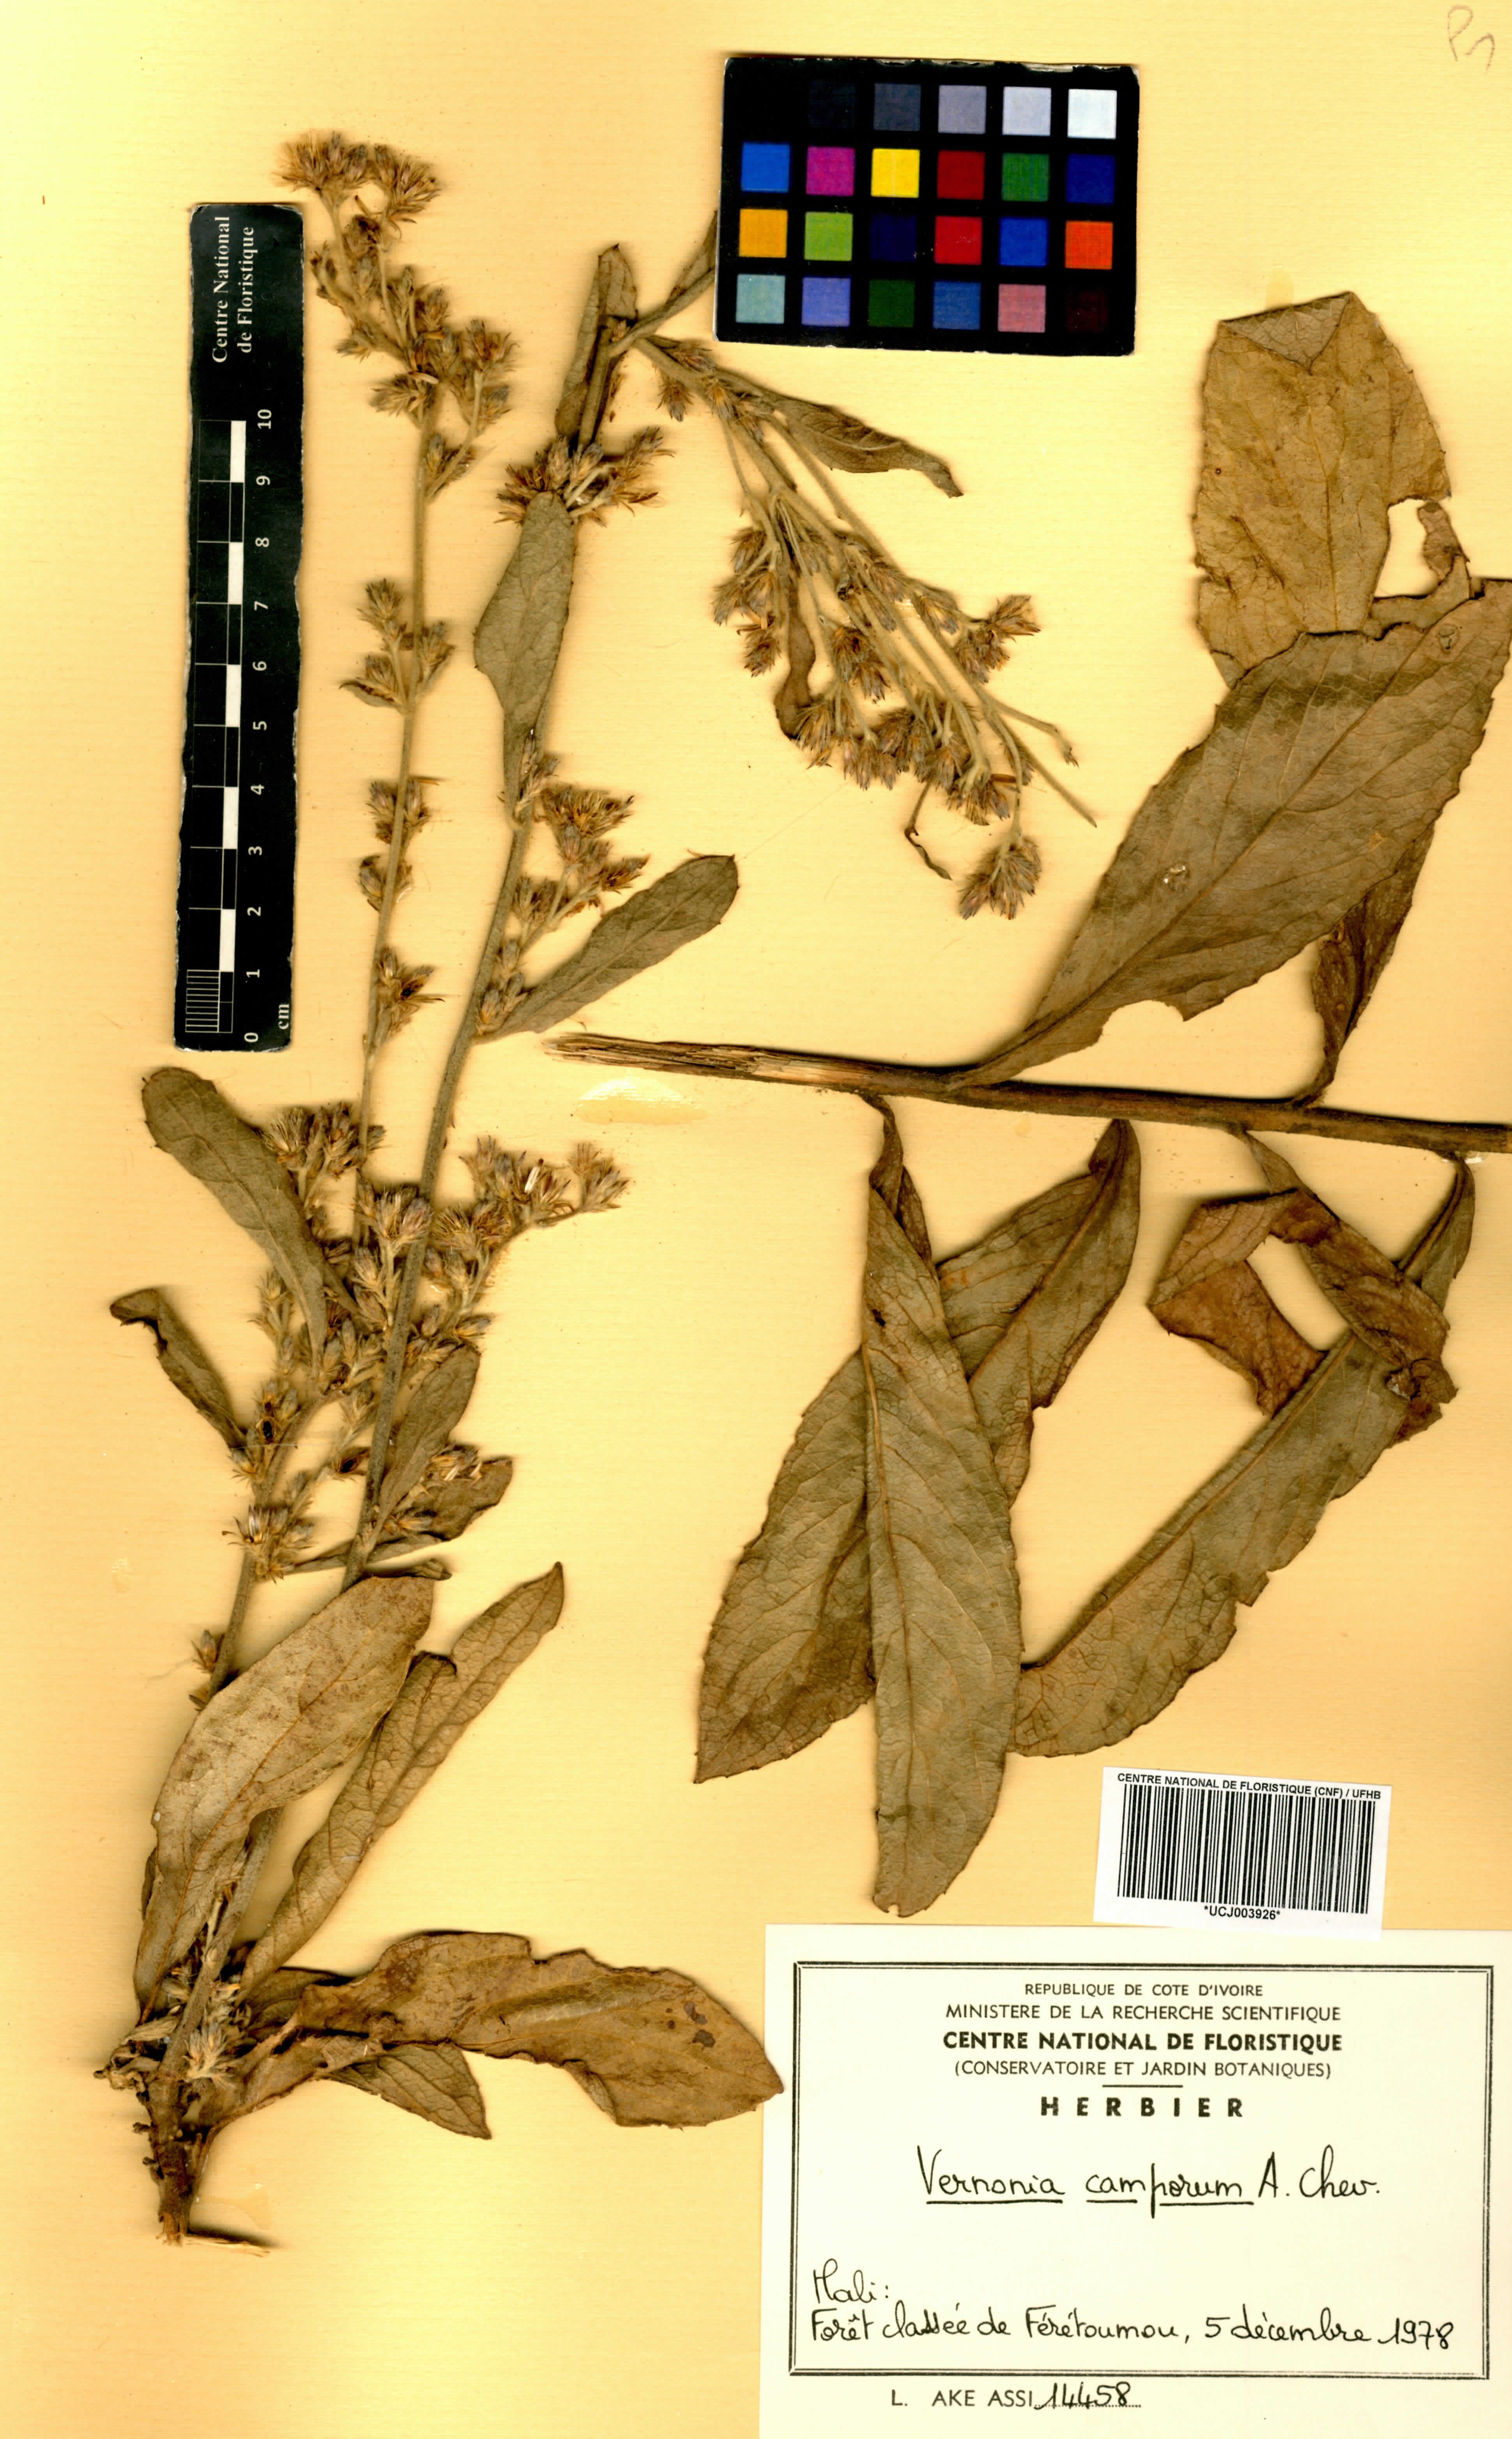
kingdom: Plantae
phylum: Tracheophyta
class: Magnoliopsida
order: Asterales
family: Asteraceae
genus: Vernoniastrum
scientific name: Vernoniastrum camporum
